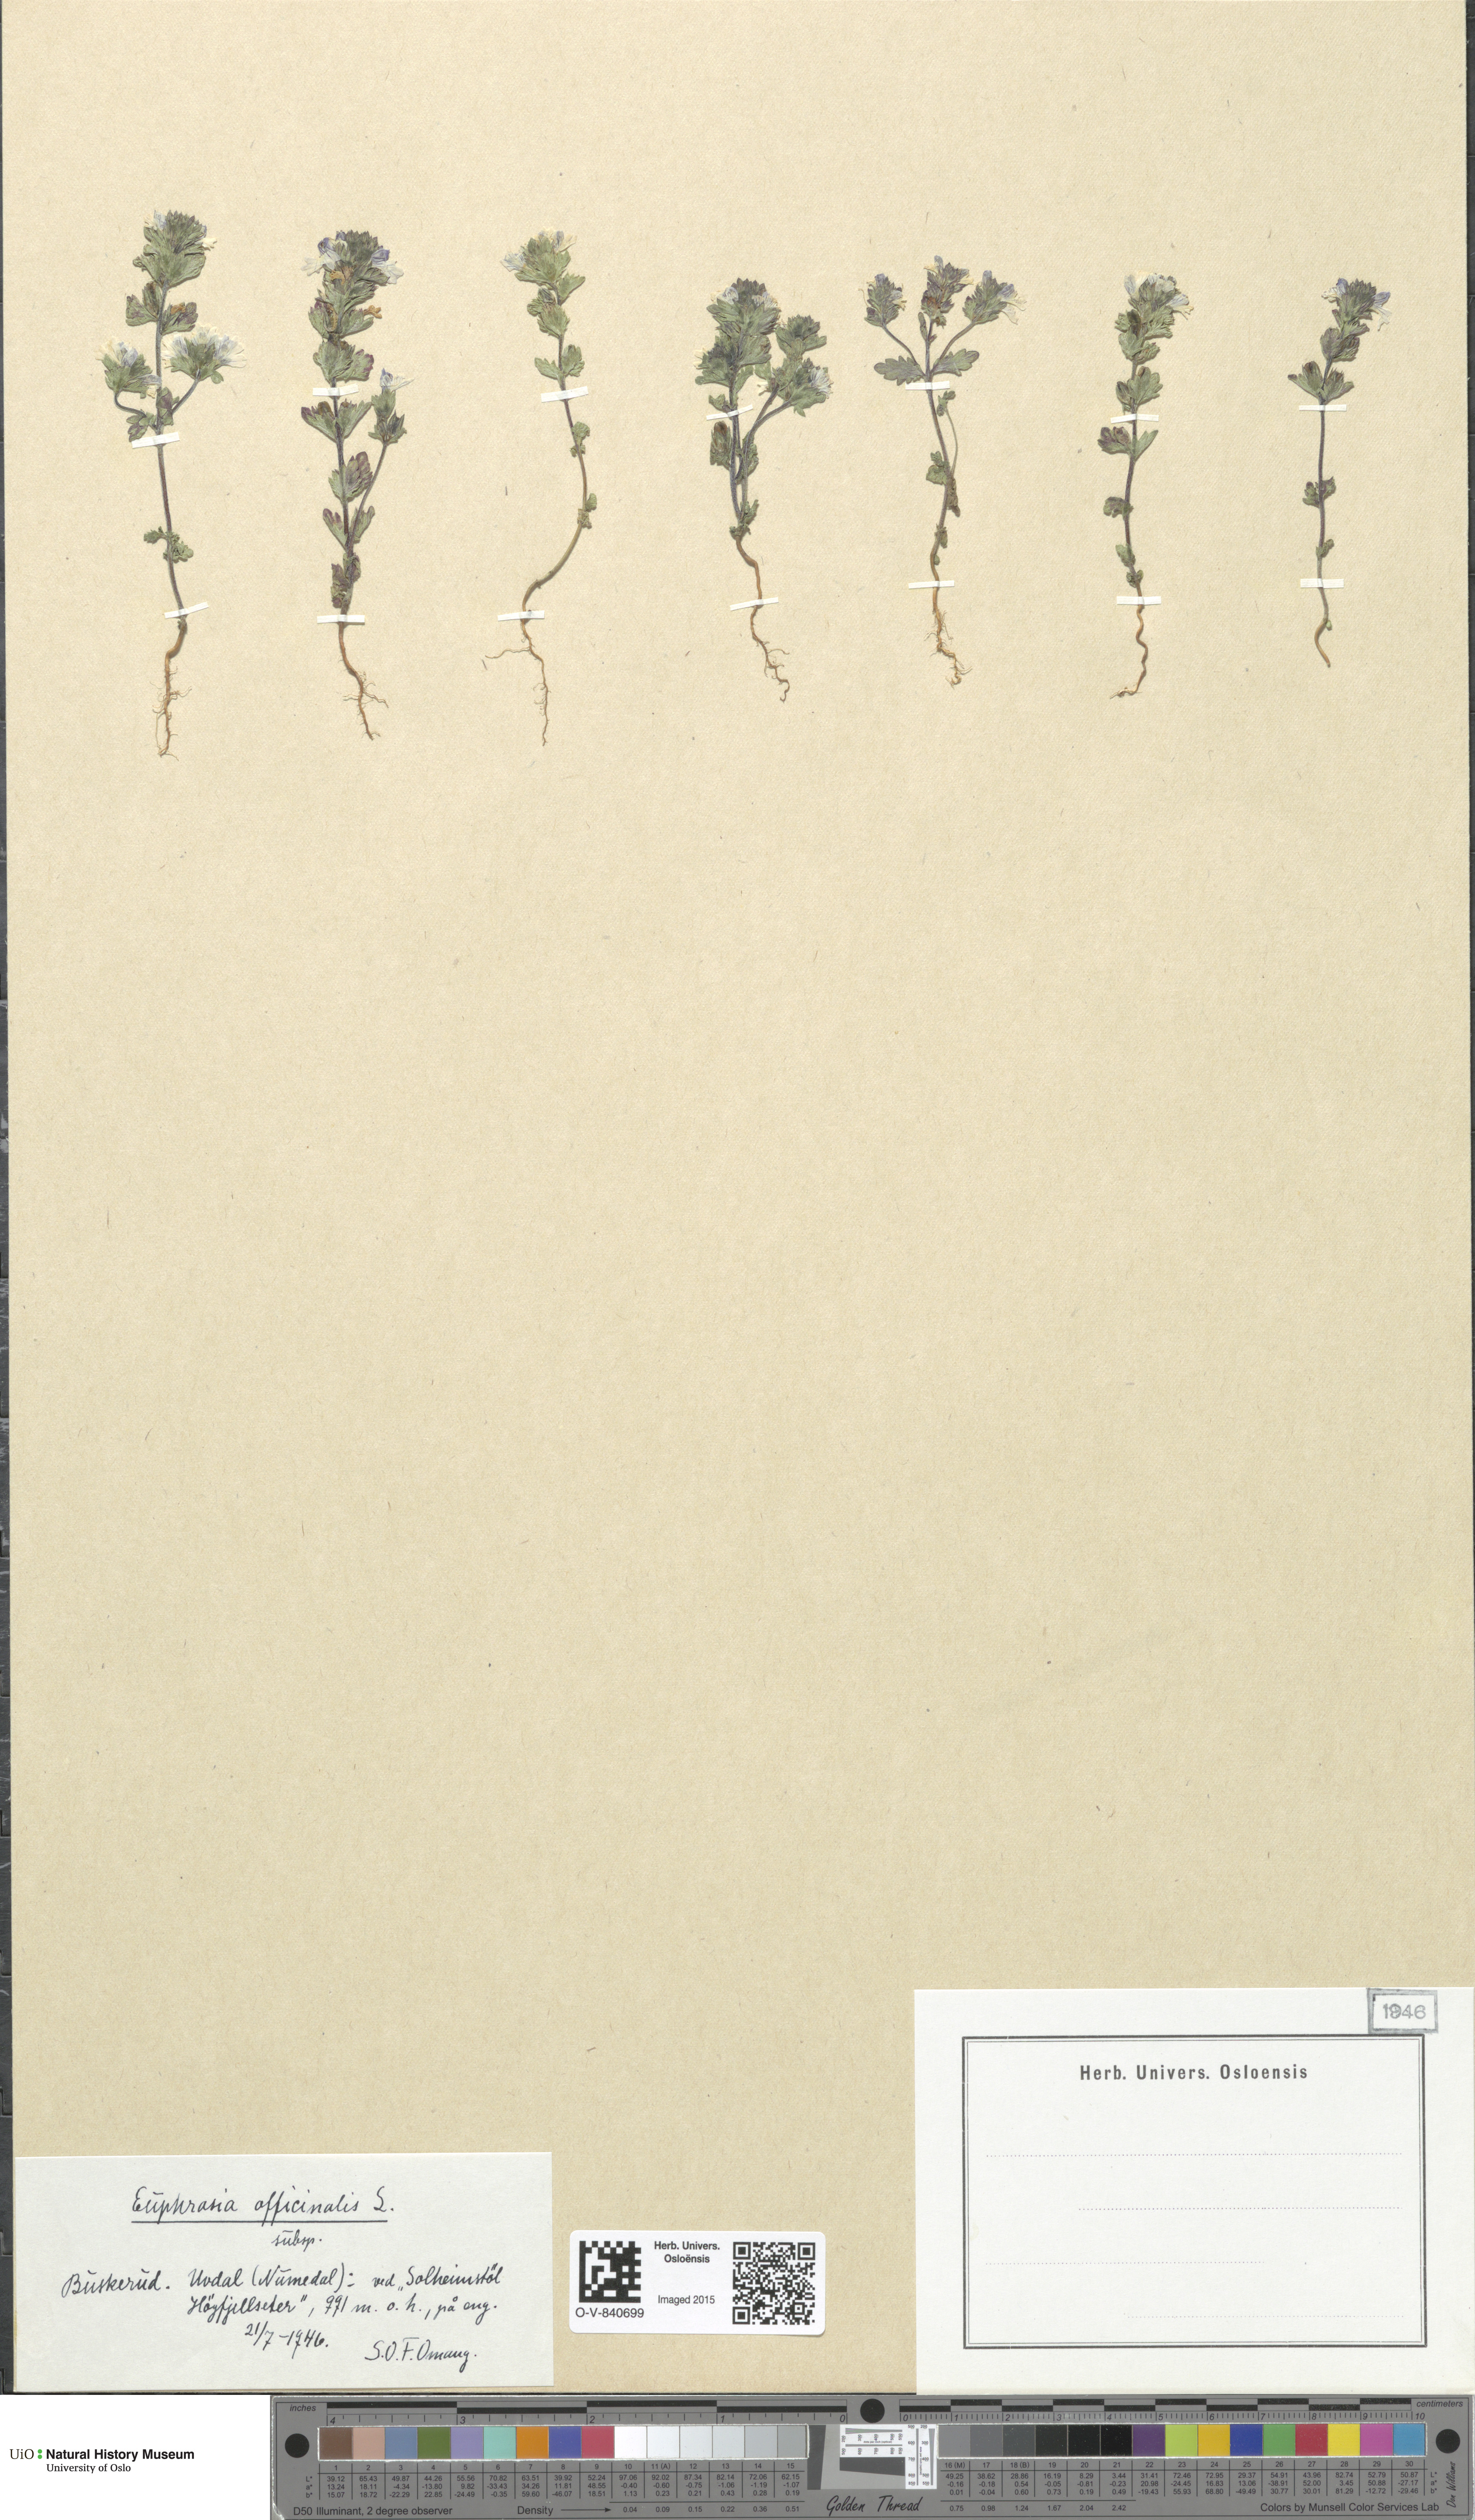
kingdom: Plantae
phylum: Tracheophyta
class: Magnoliopsida
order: Lamiales
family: Orobanchaceae
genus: Euphrasia
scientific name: Euphrasia stricta
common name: Drug eyebright
